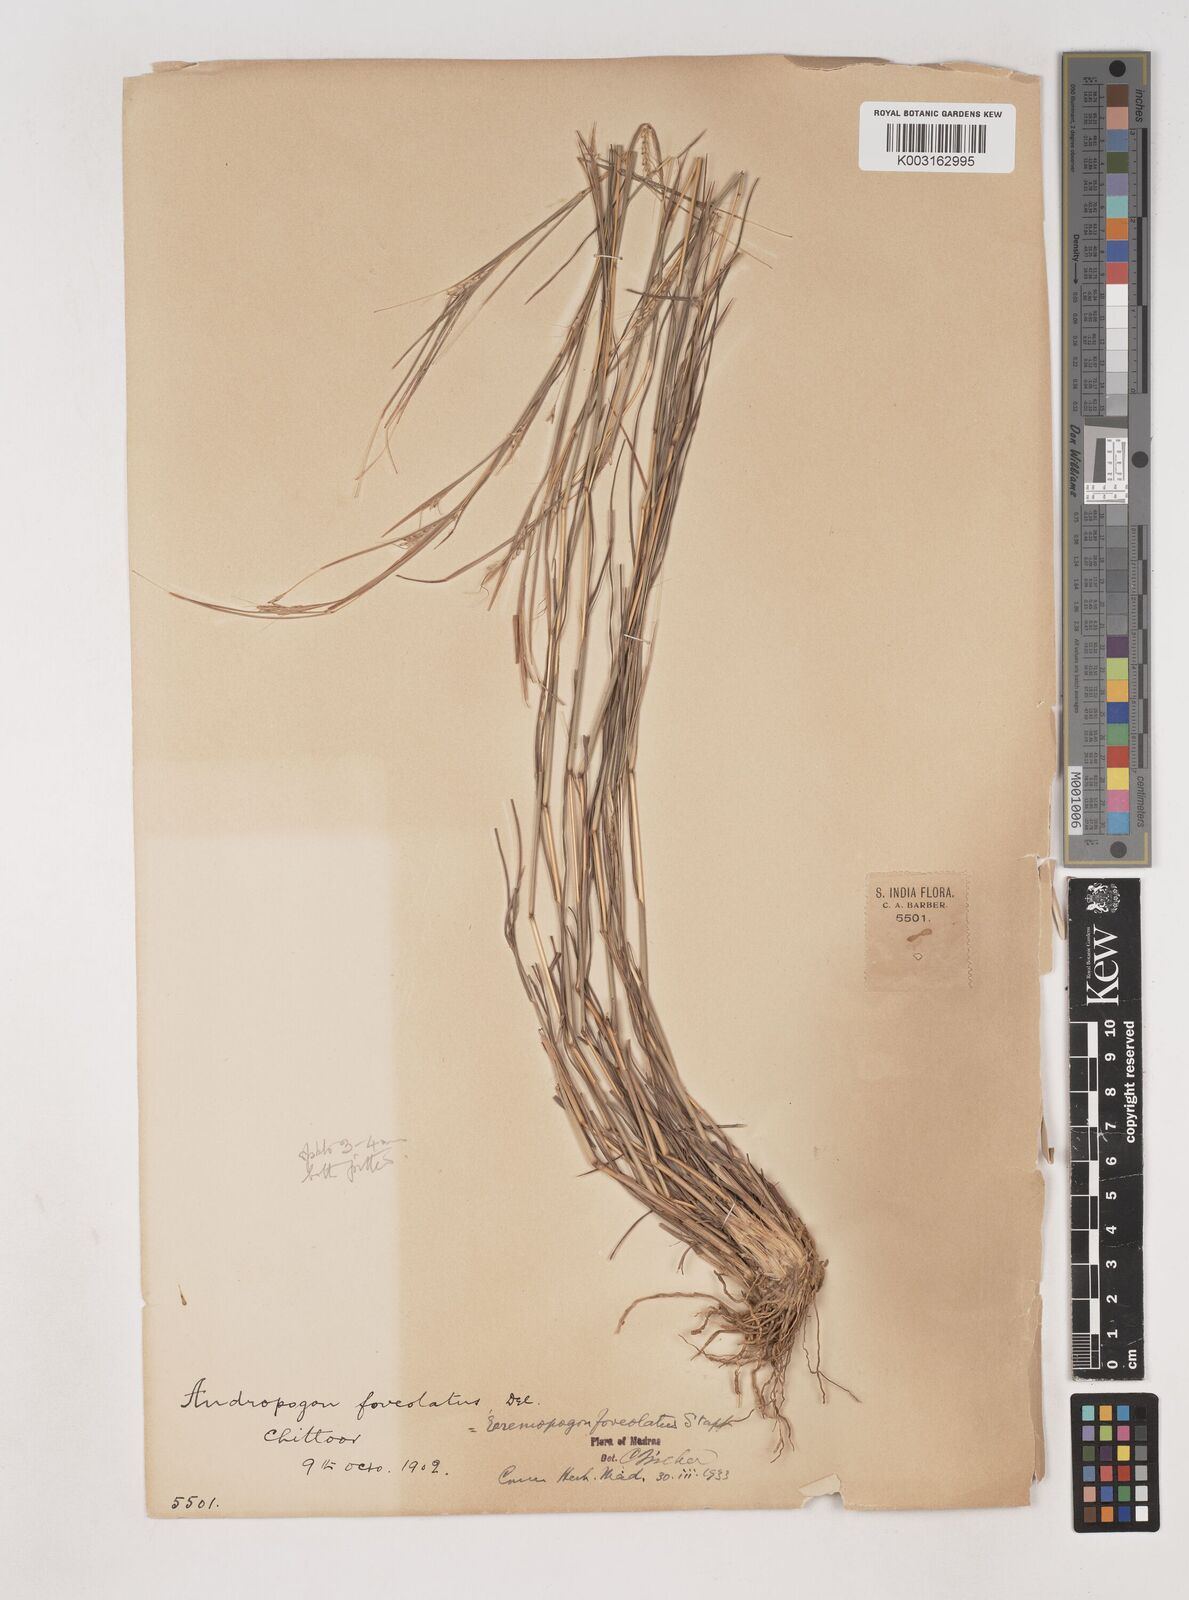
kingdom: Plantae
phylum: Tracheophyta
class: Liliopsida
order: Poales
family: Poaceae
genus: Dichanthium
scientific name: Dichanthium foveolatum
